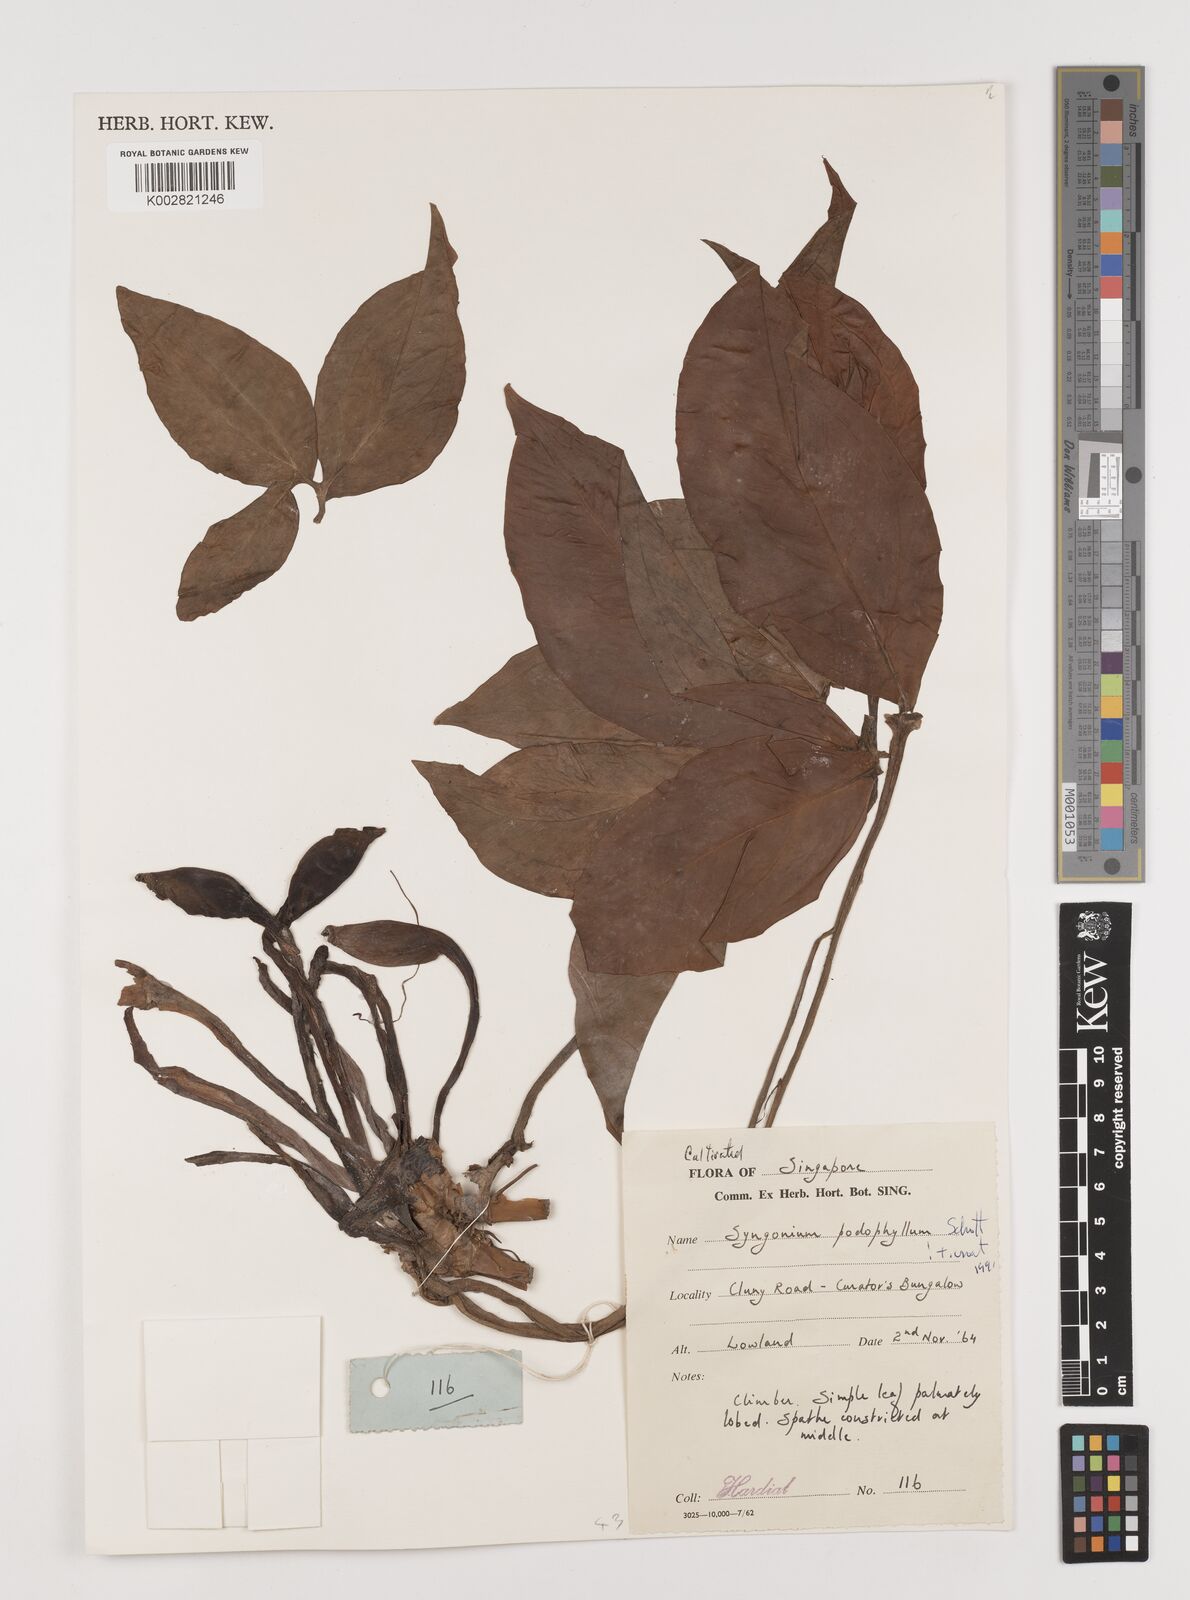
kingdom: Plantae
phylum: Tracheophyta
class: Liliopsida
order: Alismatales
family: Araceae
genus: Syngonium
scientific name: Syngonium podophyllum
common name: American evergreen
